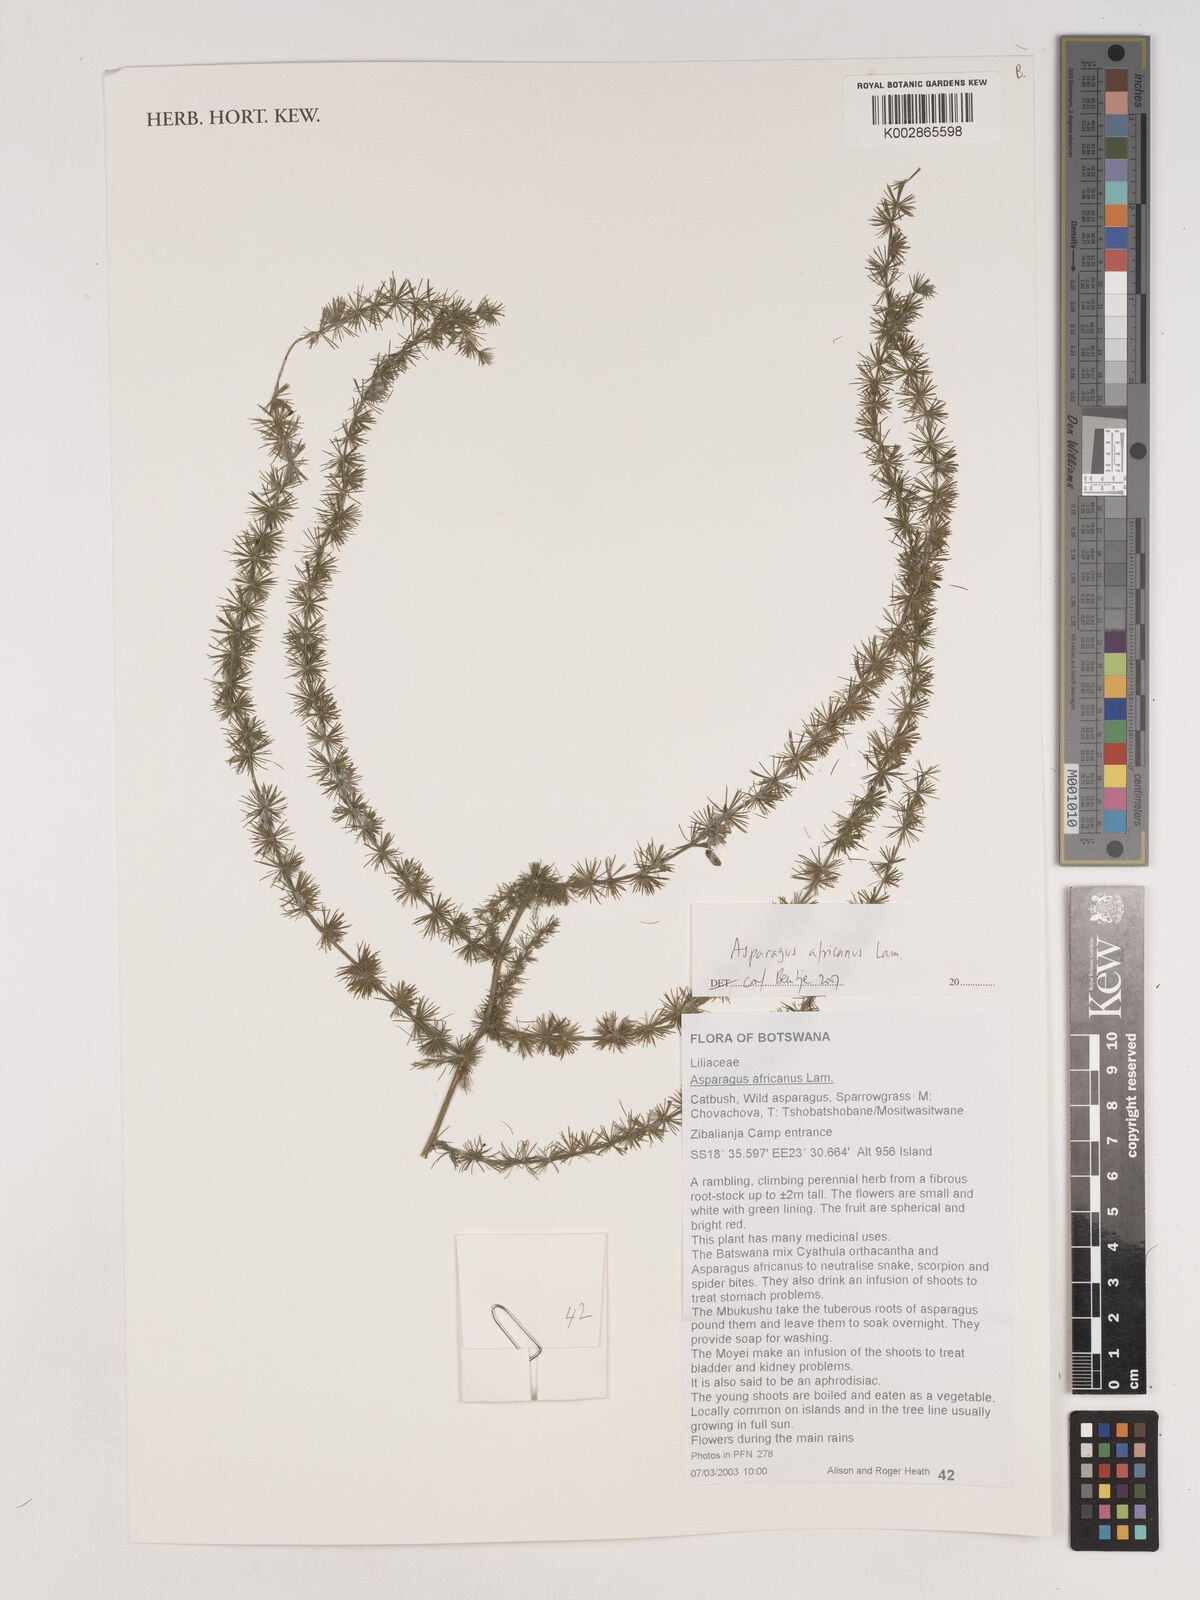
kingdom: Plantae
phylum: Tracheophyta
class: Liliopsida
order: Asparagales
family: Asparagaceae
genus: Asparagus
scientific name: Asparagus africanus
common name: Asparagus-fern
